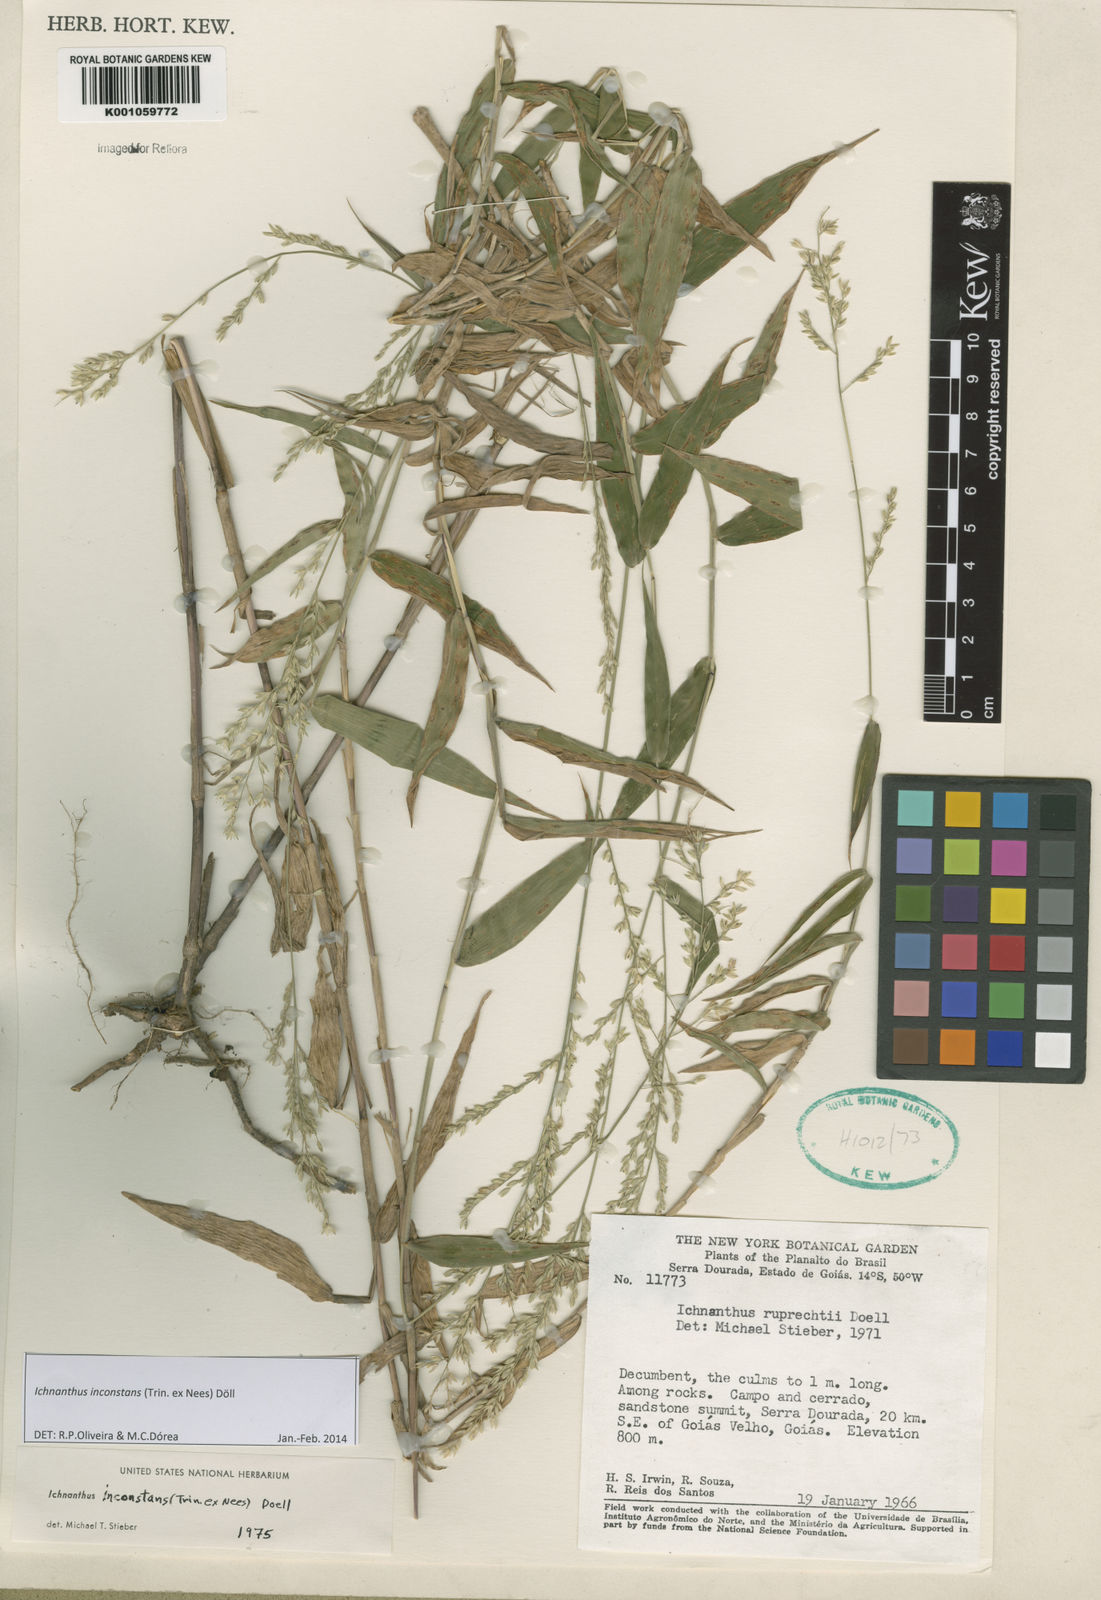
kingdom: Plantae
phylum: Tracheophyta
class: Liliopsida
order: Poales
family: Poaceae
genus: Ichnanthus
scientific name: Ichnanthus
